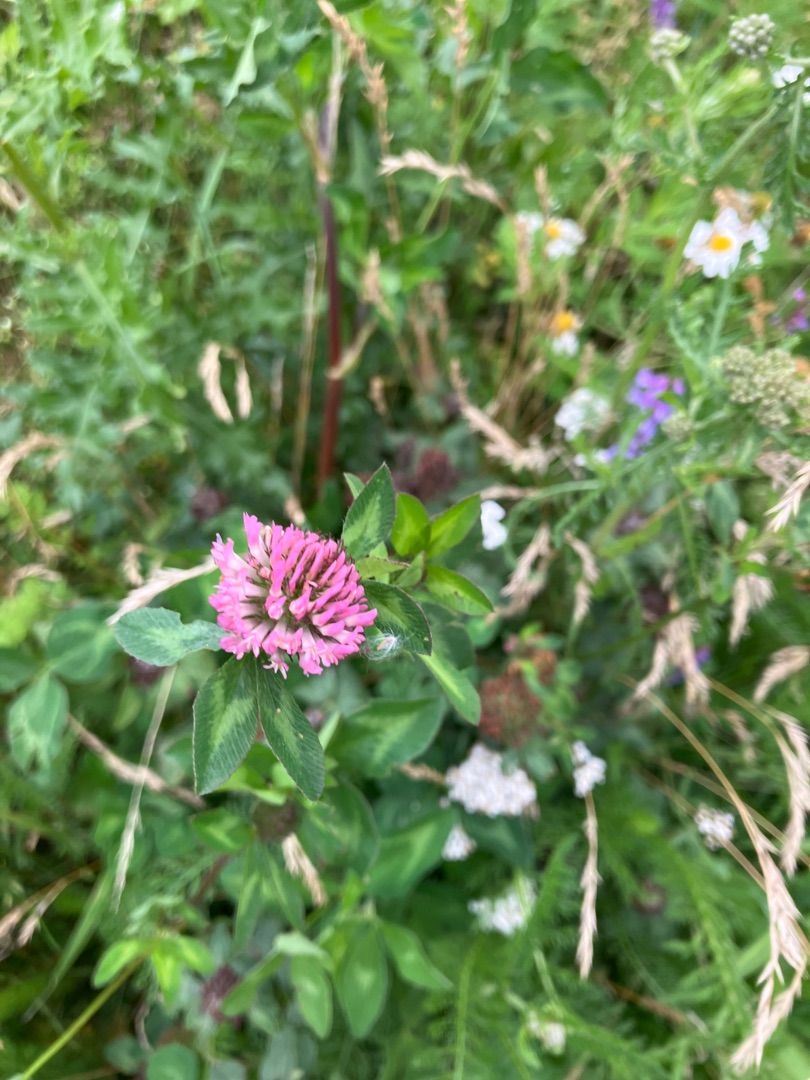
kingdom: Plantae
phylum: Tracheophyta
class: Magnoliopsida
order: Fabales
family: Fabaceae
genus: Trifolium
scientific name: Trifolium pratense
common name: Rød-kløver
